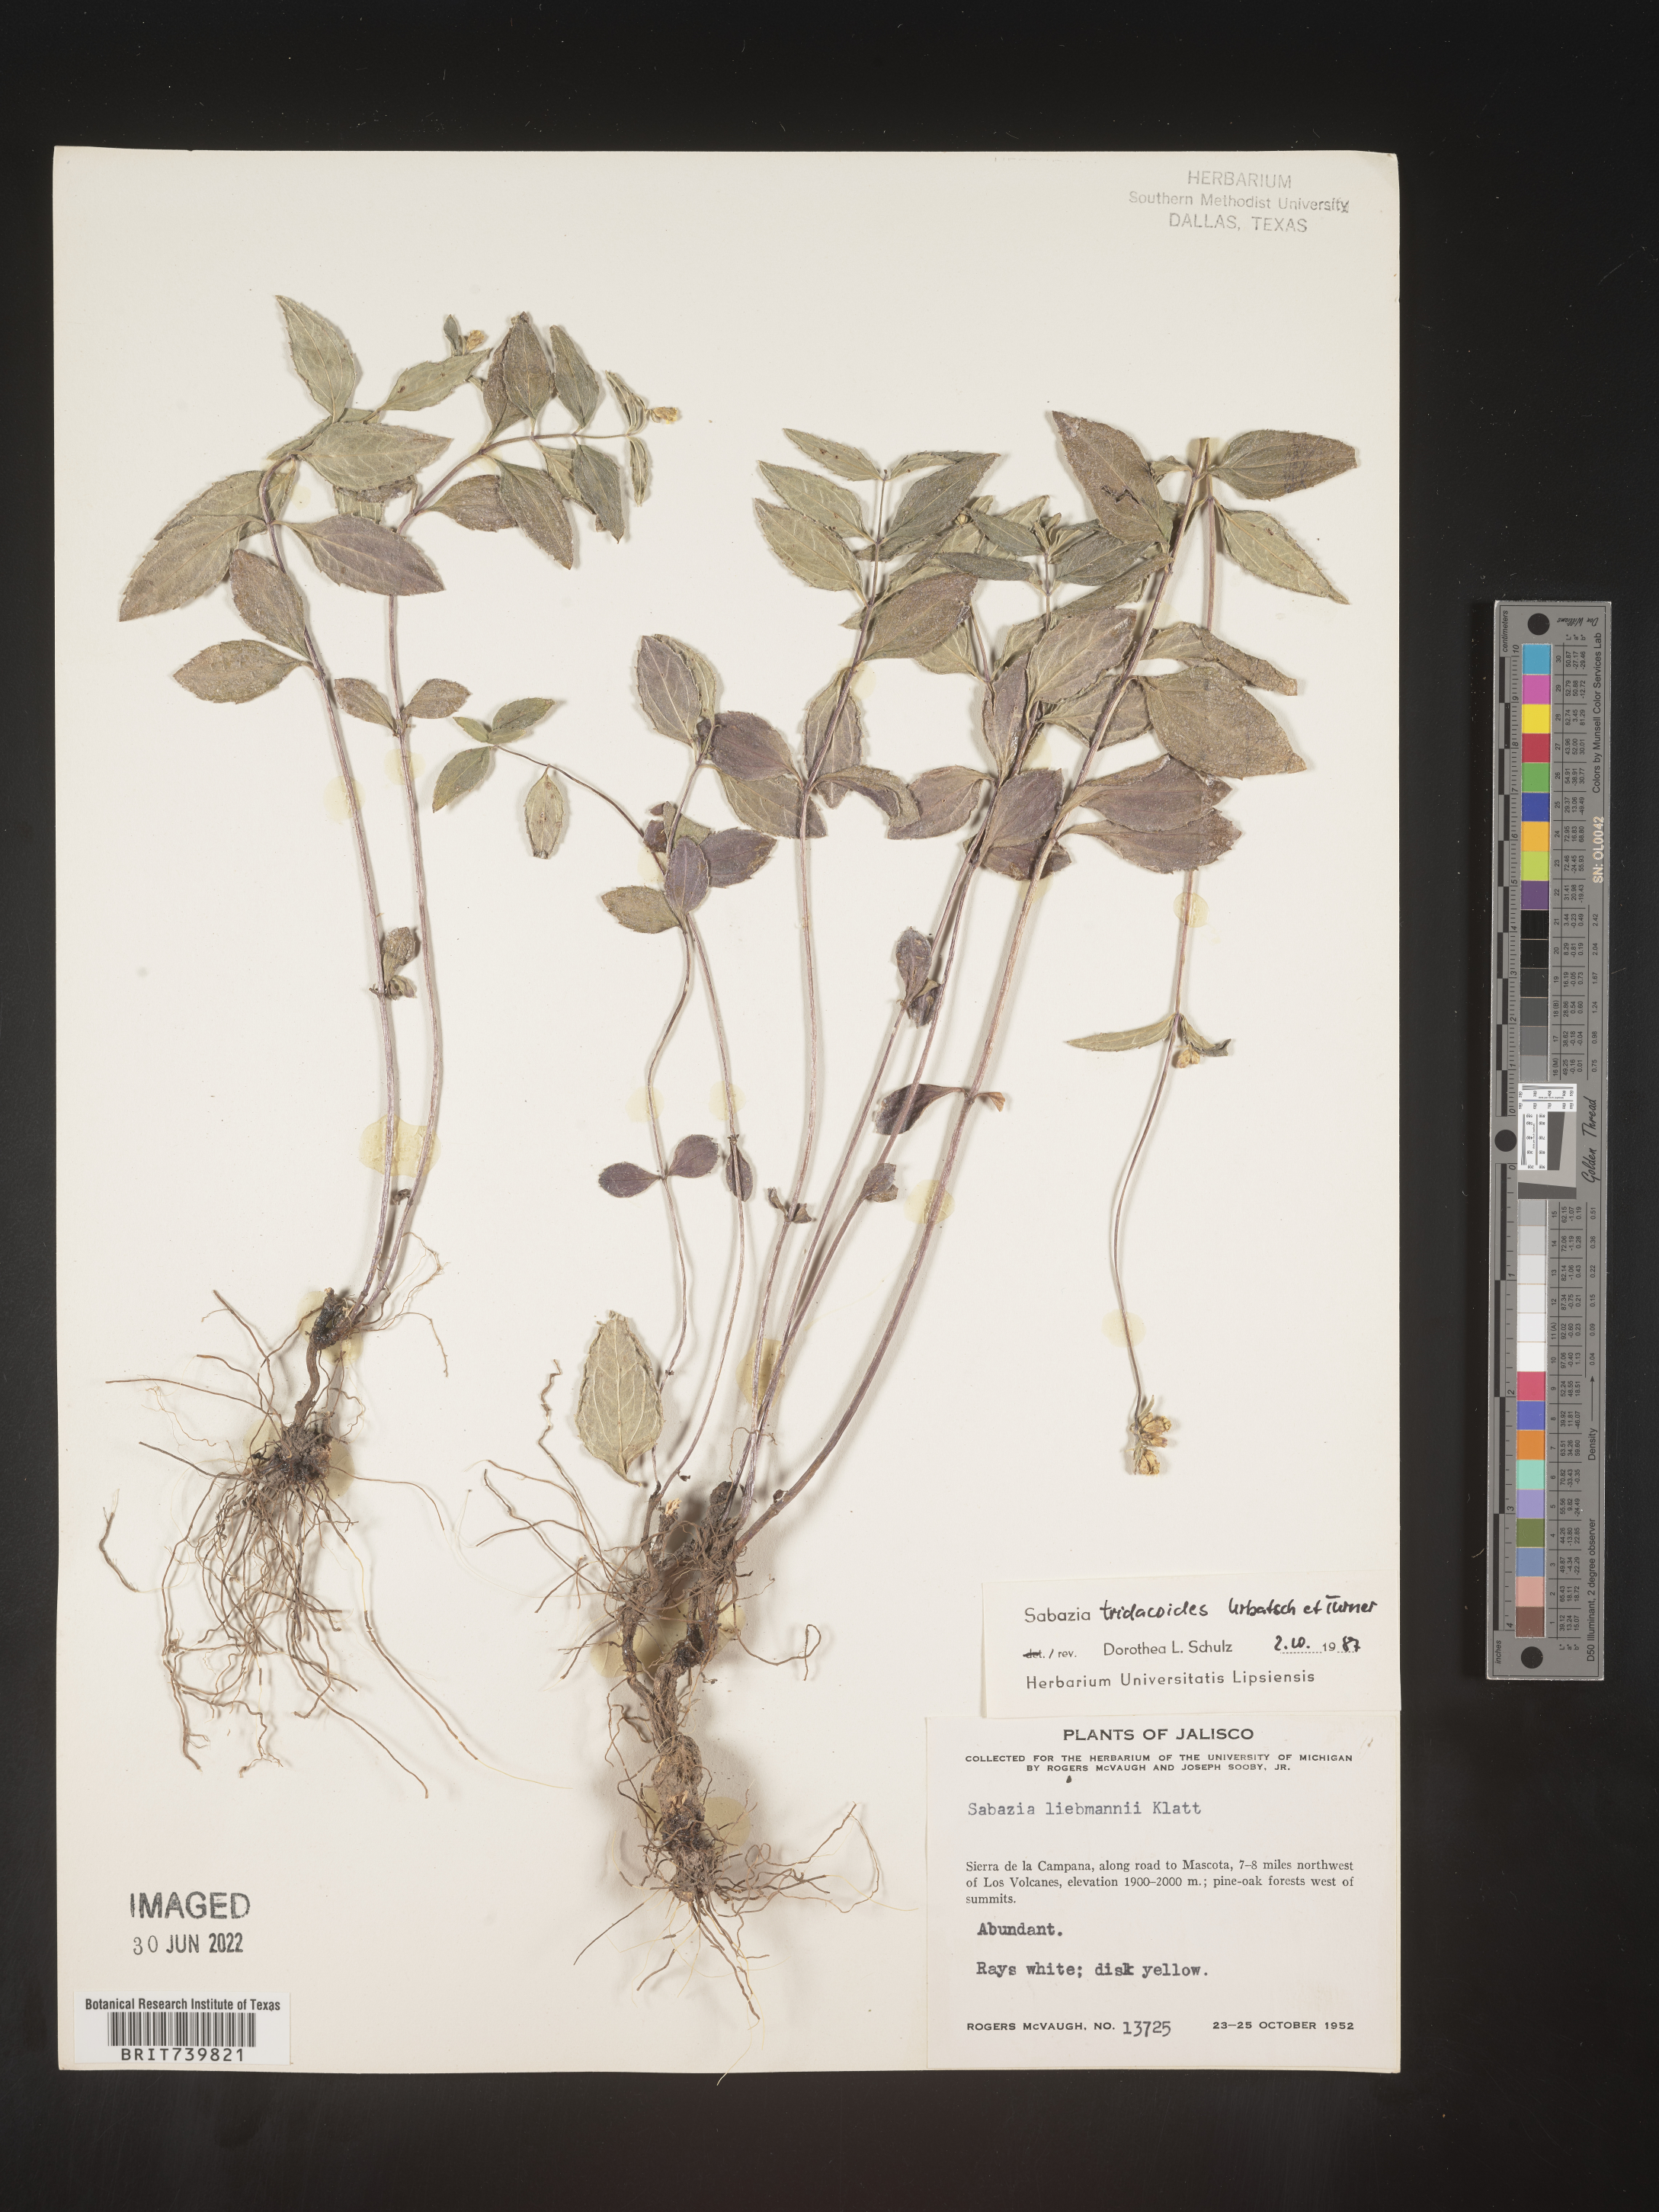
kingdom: Plantae
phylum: Tracheophyta
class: Magnoliopsida
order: Asterales
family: Asteraceae
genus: Sabazia
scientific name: Sabazia
